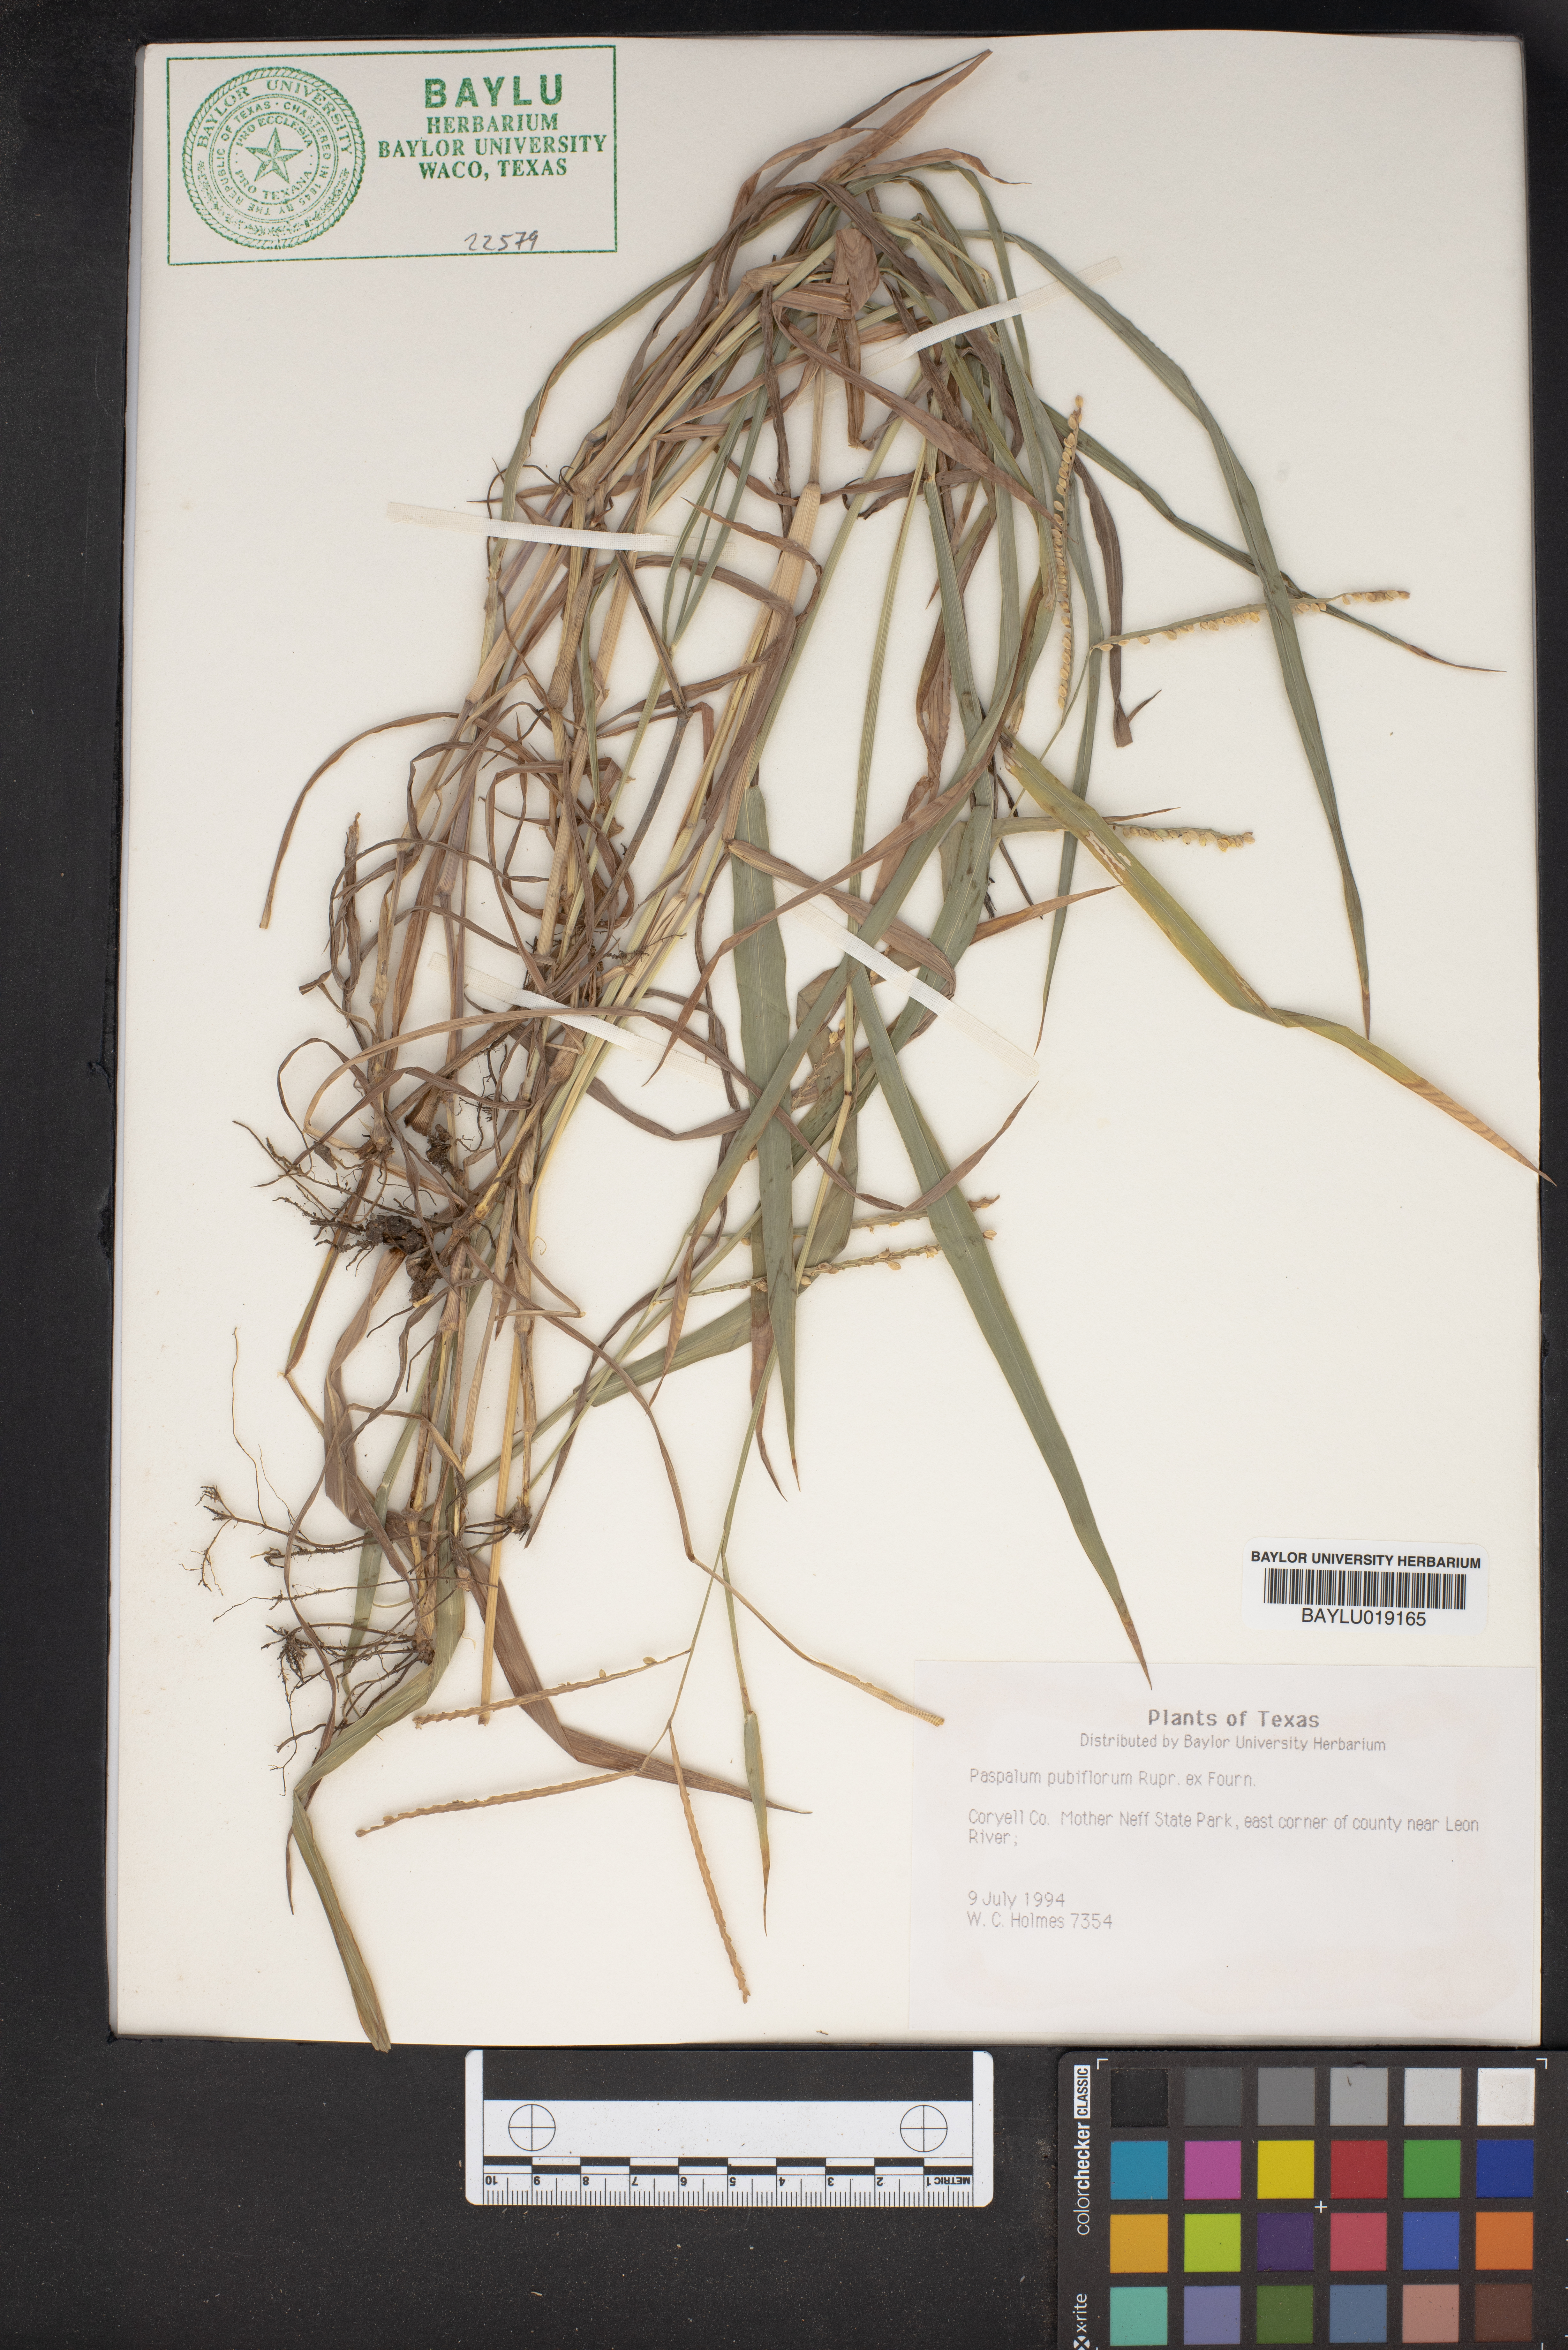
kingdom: Plantae
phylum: Tracheophyta
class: Liliopsida
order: Poales
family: Poaceae
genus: Paspalum
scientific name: Paspalum pubiflorum
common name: Hairy-seed paspalum
